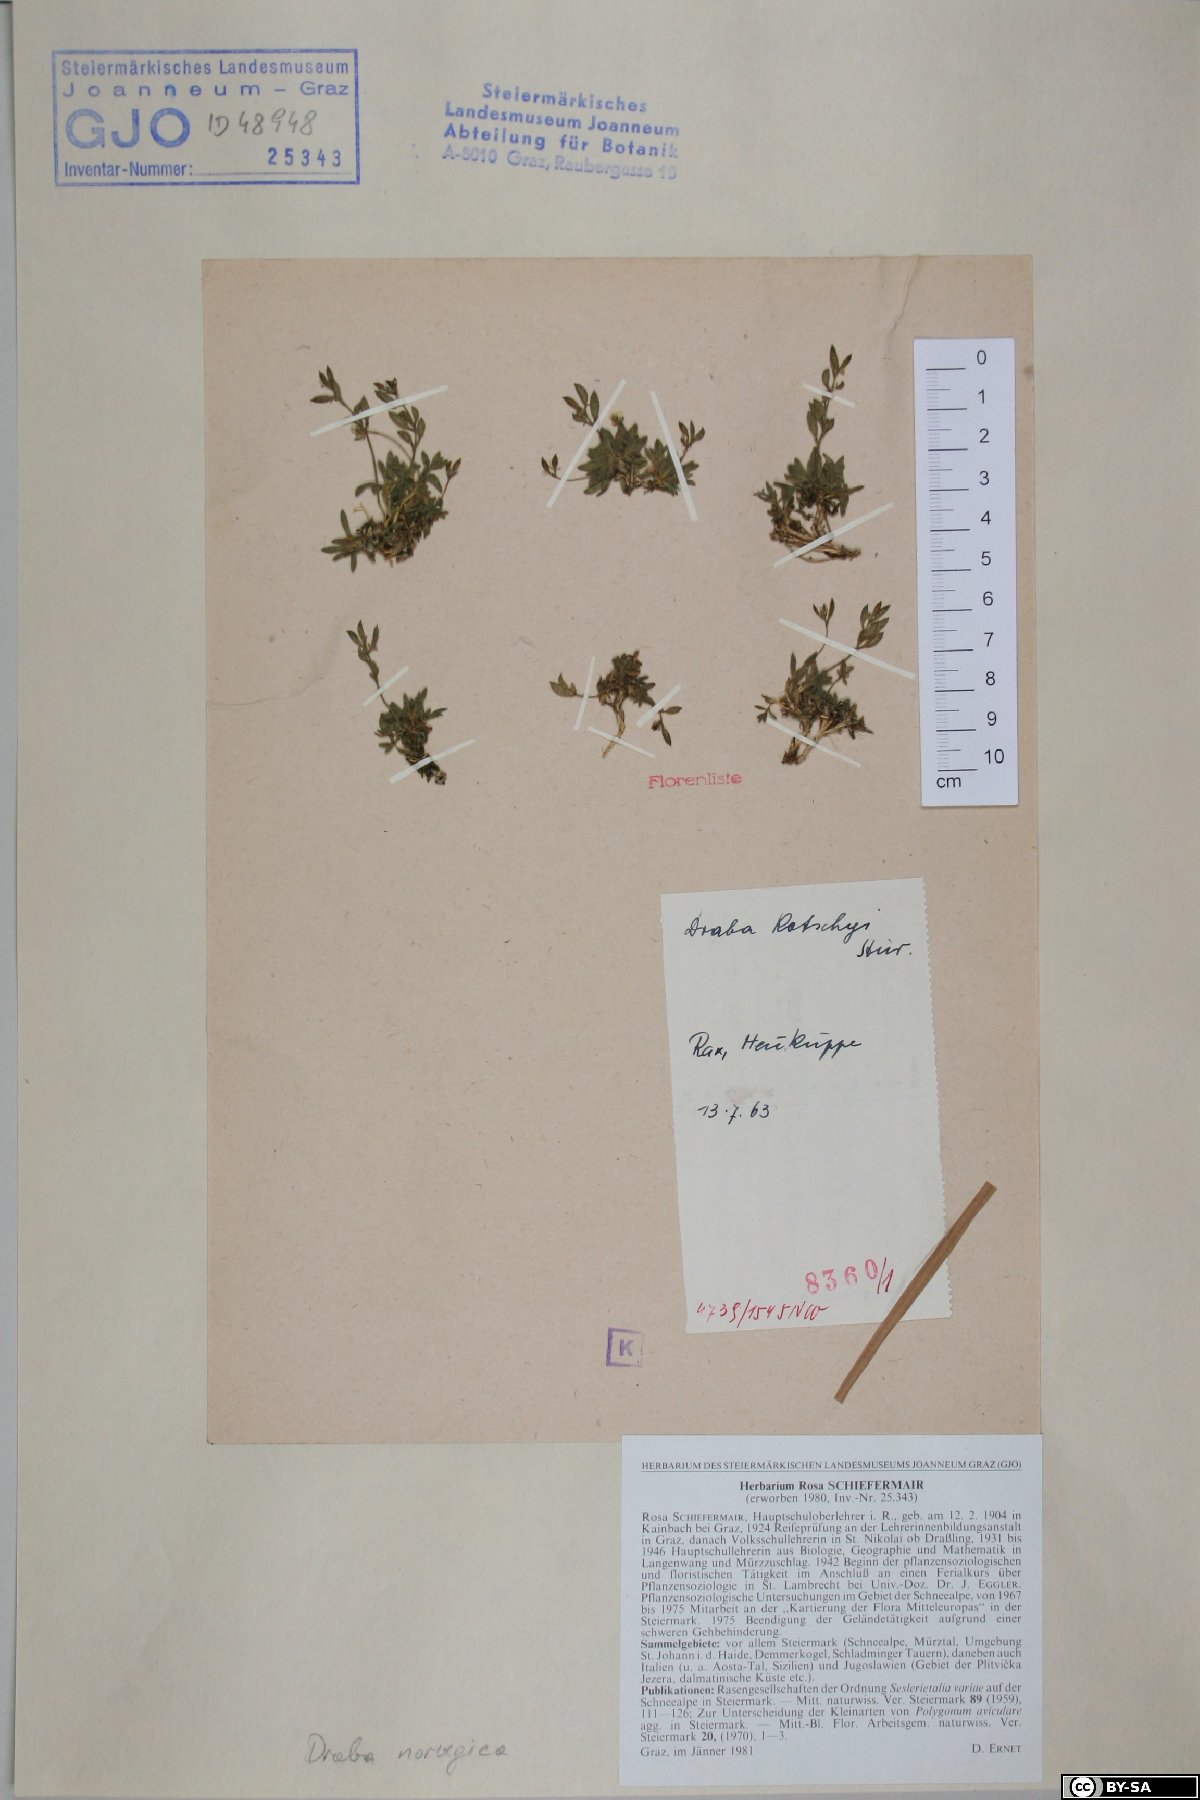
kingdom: Plantae
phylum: Tracheophyta
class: Magnoliopsida
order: Brassicales
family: Brassicaceae
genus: Draba
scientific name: Draba norvegica
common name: Rock whitlowgrass
